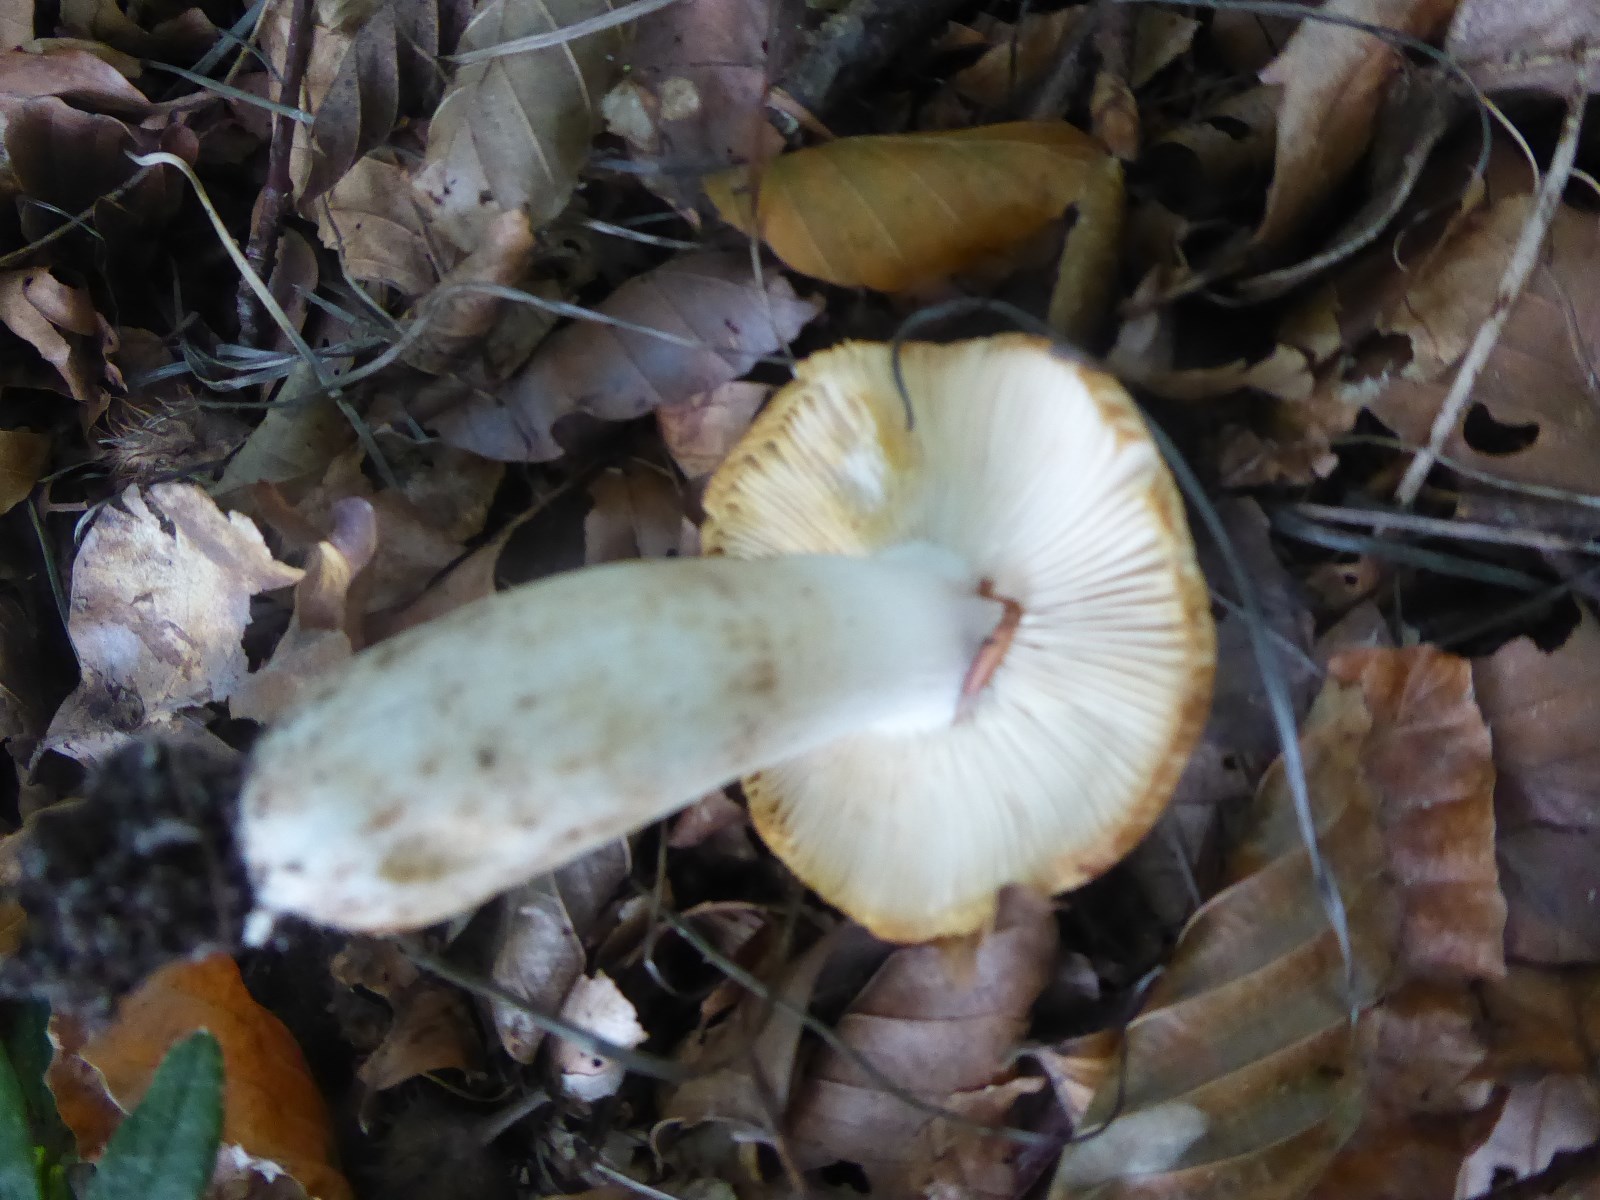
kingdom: Fungi
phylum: Basidiomycota
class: Agaricomycetes
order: Russulales
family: Russulaceae
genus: Russula
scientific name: Russula foetens
